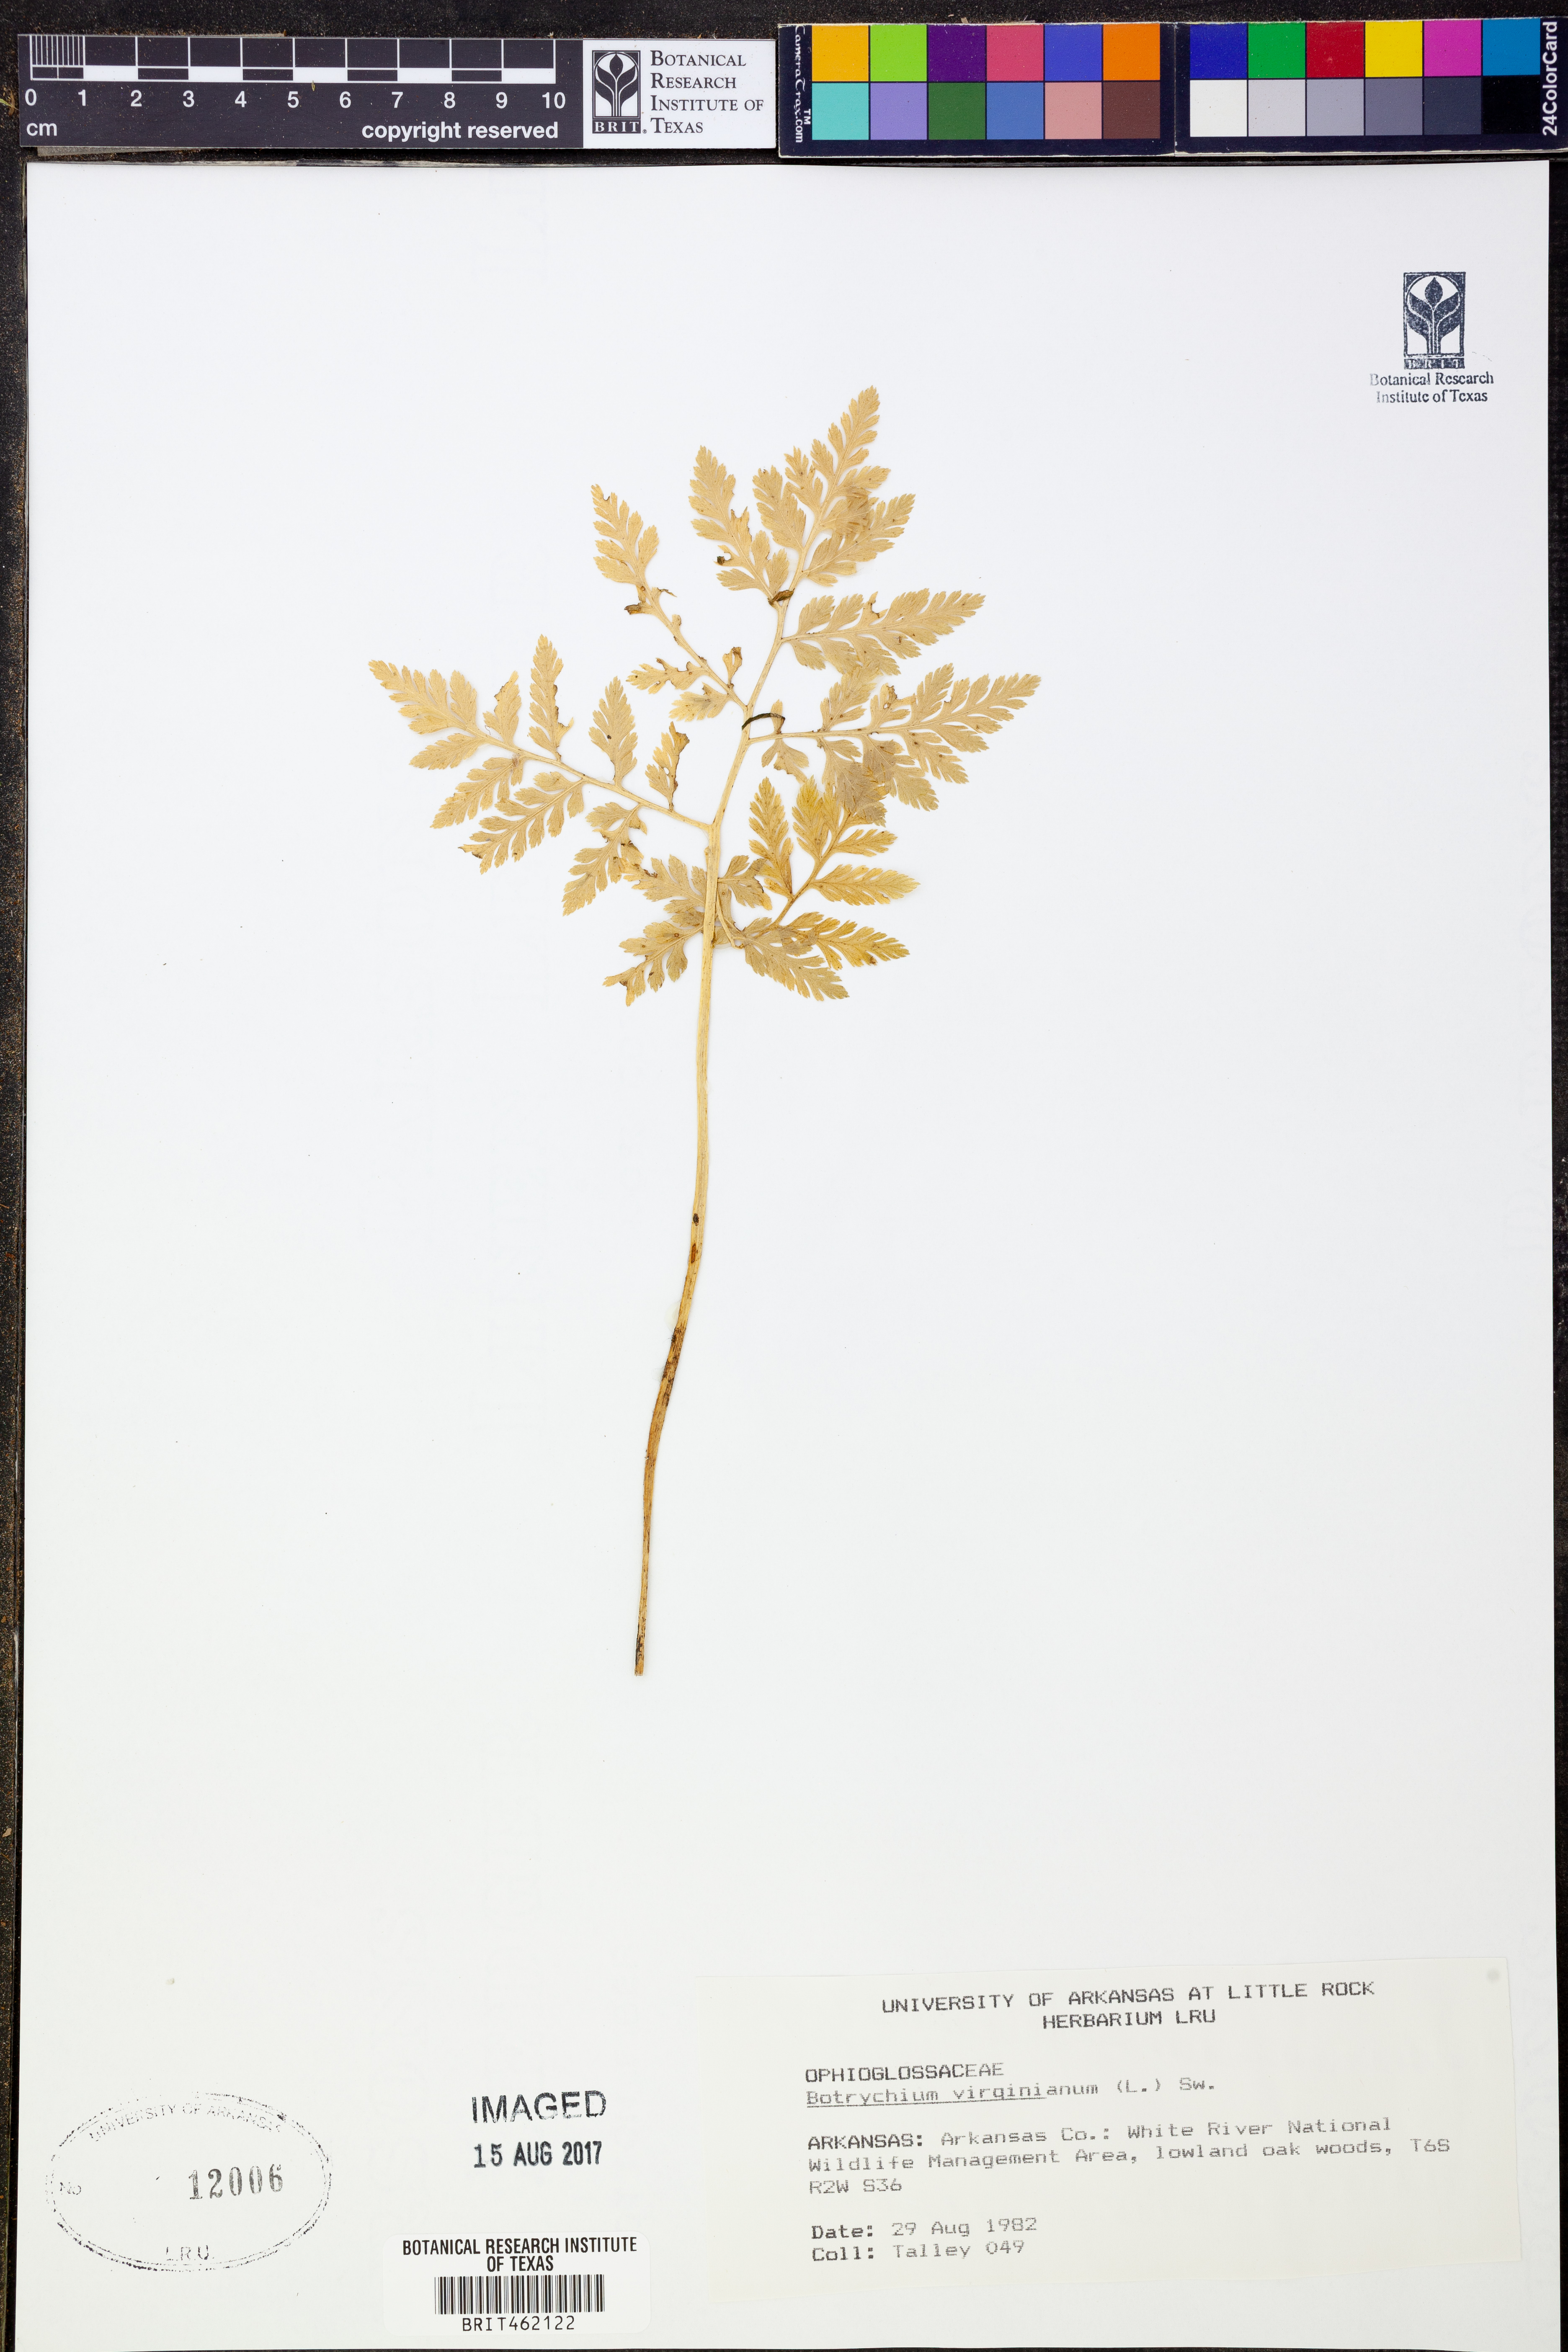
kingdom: Plantae
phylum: Tracheophyta
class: Polypodiopsida
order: Ophioglossales
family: Ophioglossaceae
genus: Botrypus
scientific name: Botrypus virginianus
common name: Common grapefern
